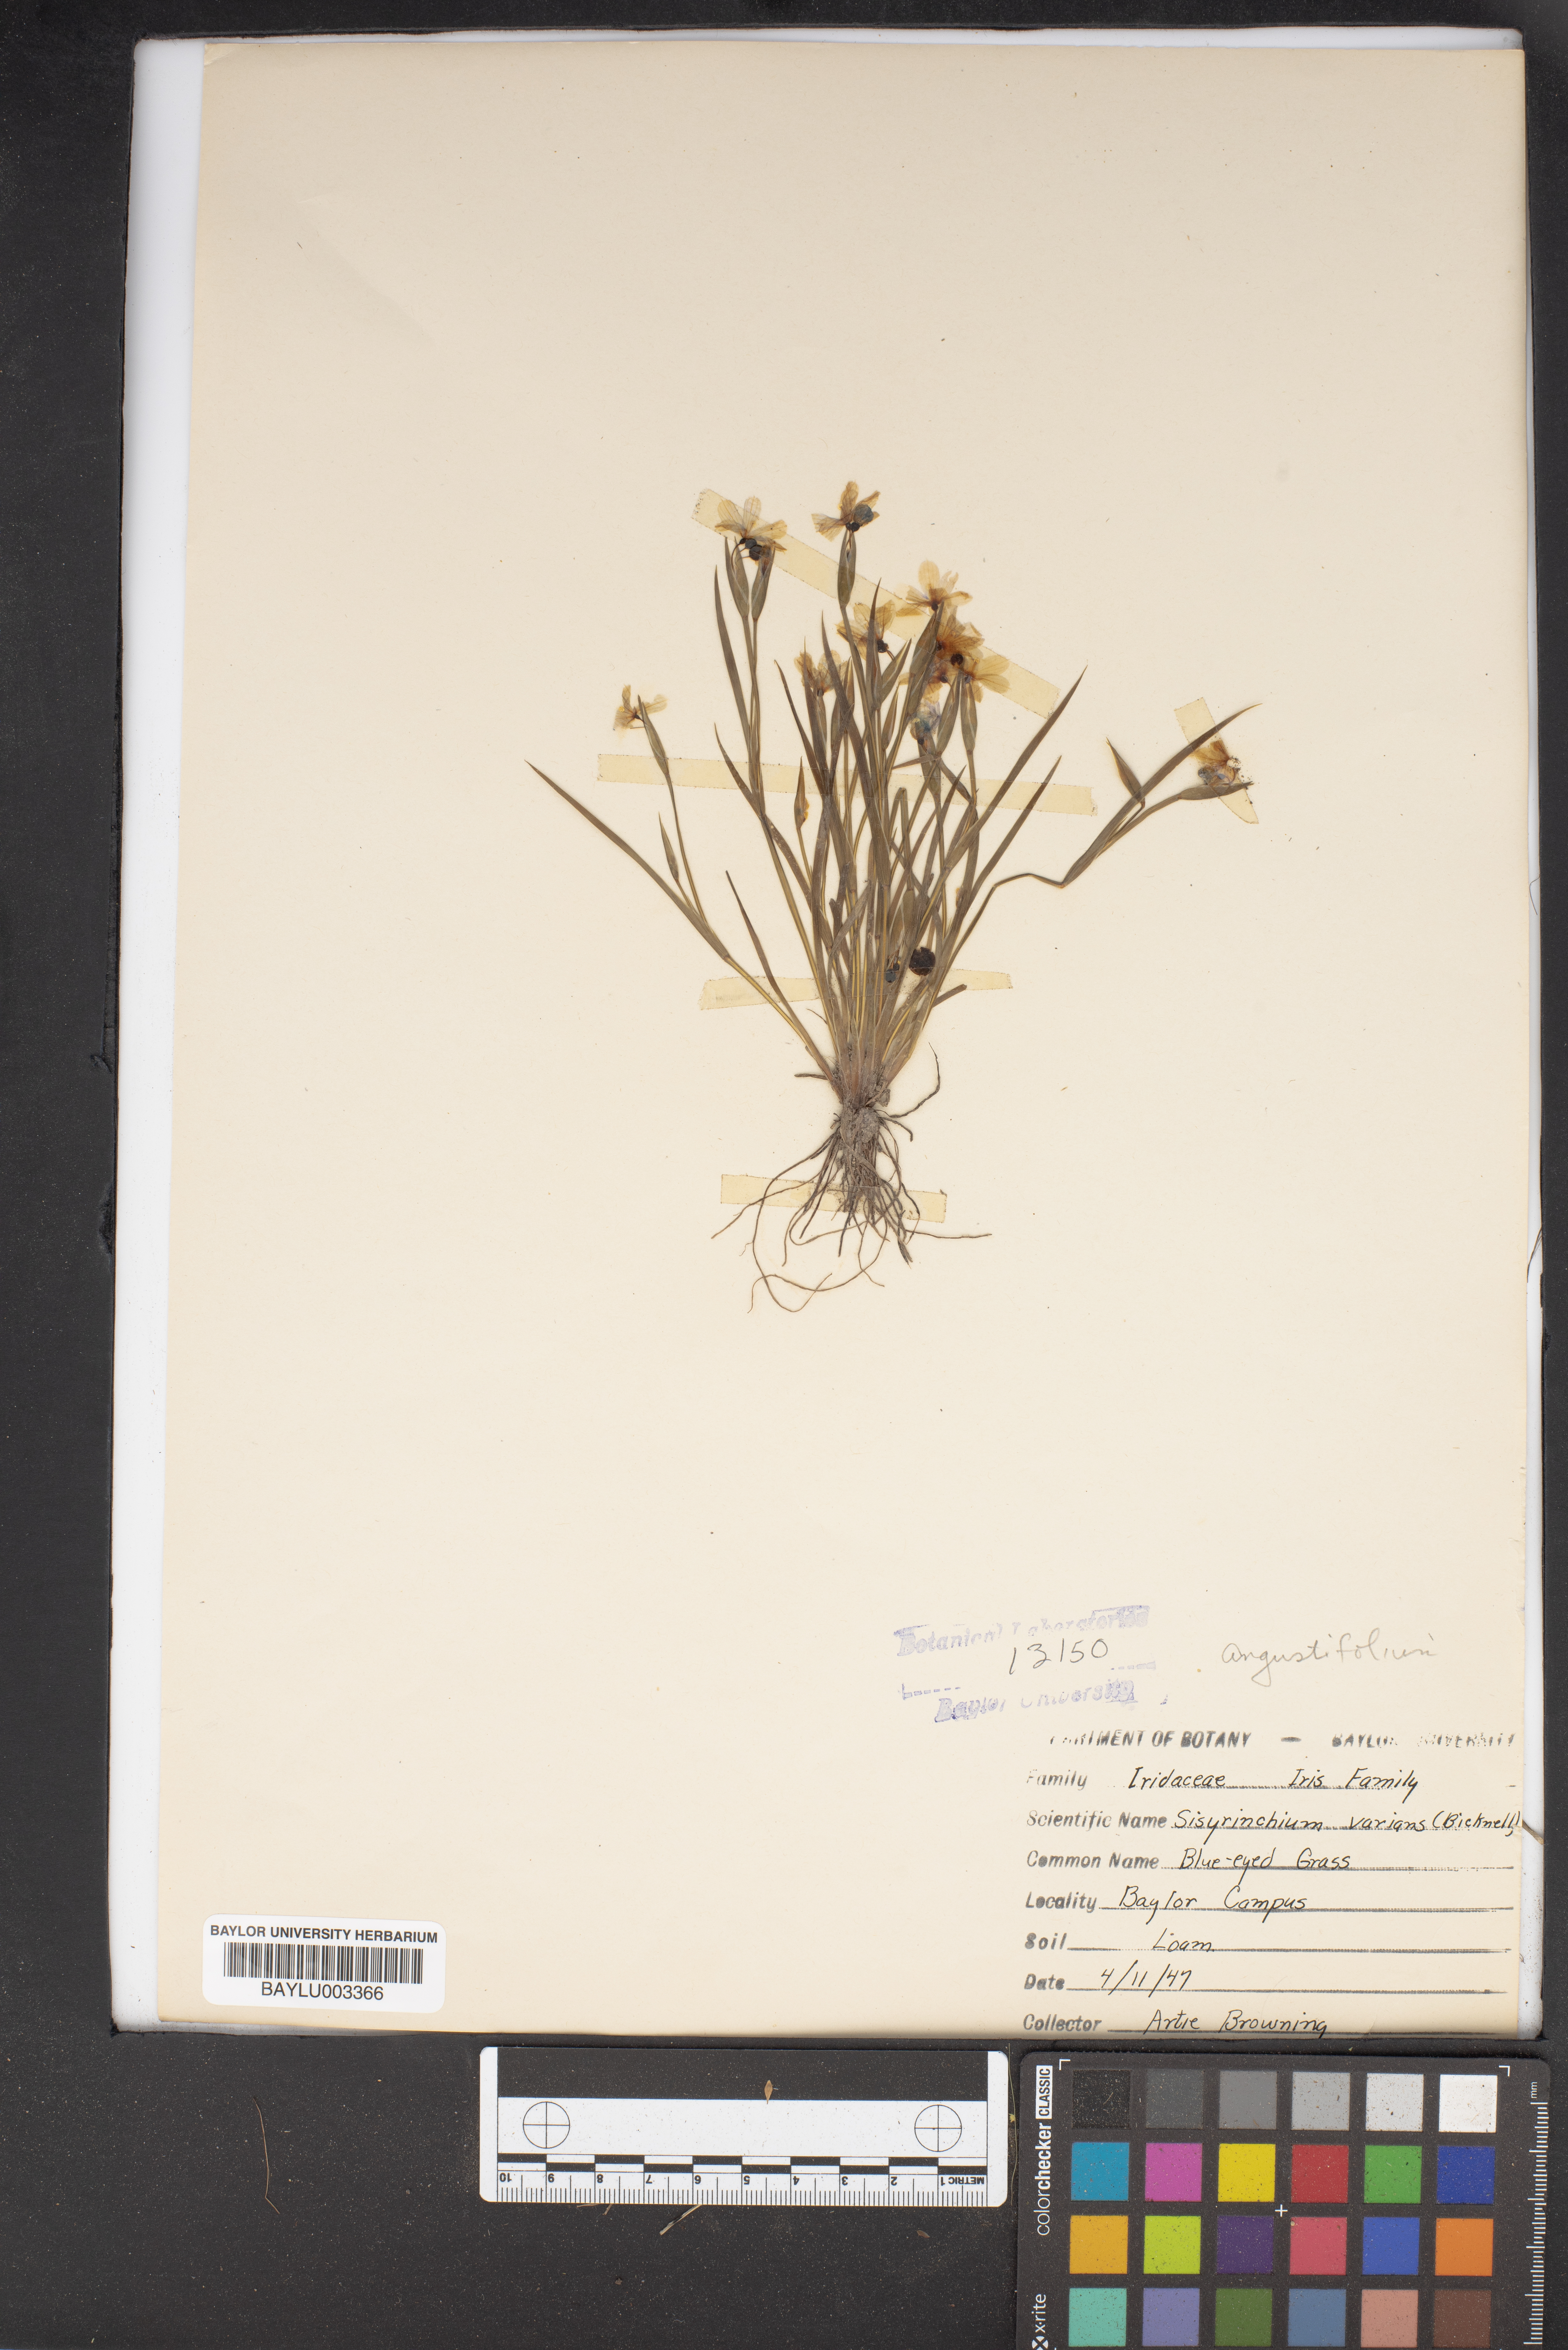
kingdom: Plantae
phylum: Tracheophyta
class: Liliopsida
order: Asparagales
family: Iridaceae
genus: Sisyrinchium
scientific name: Sisyrinchium pruinosum
